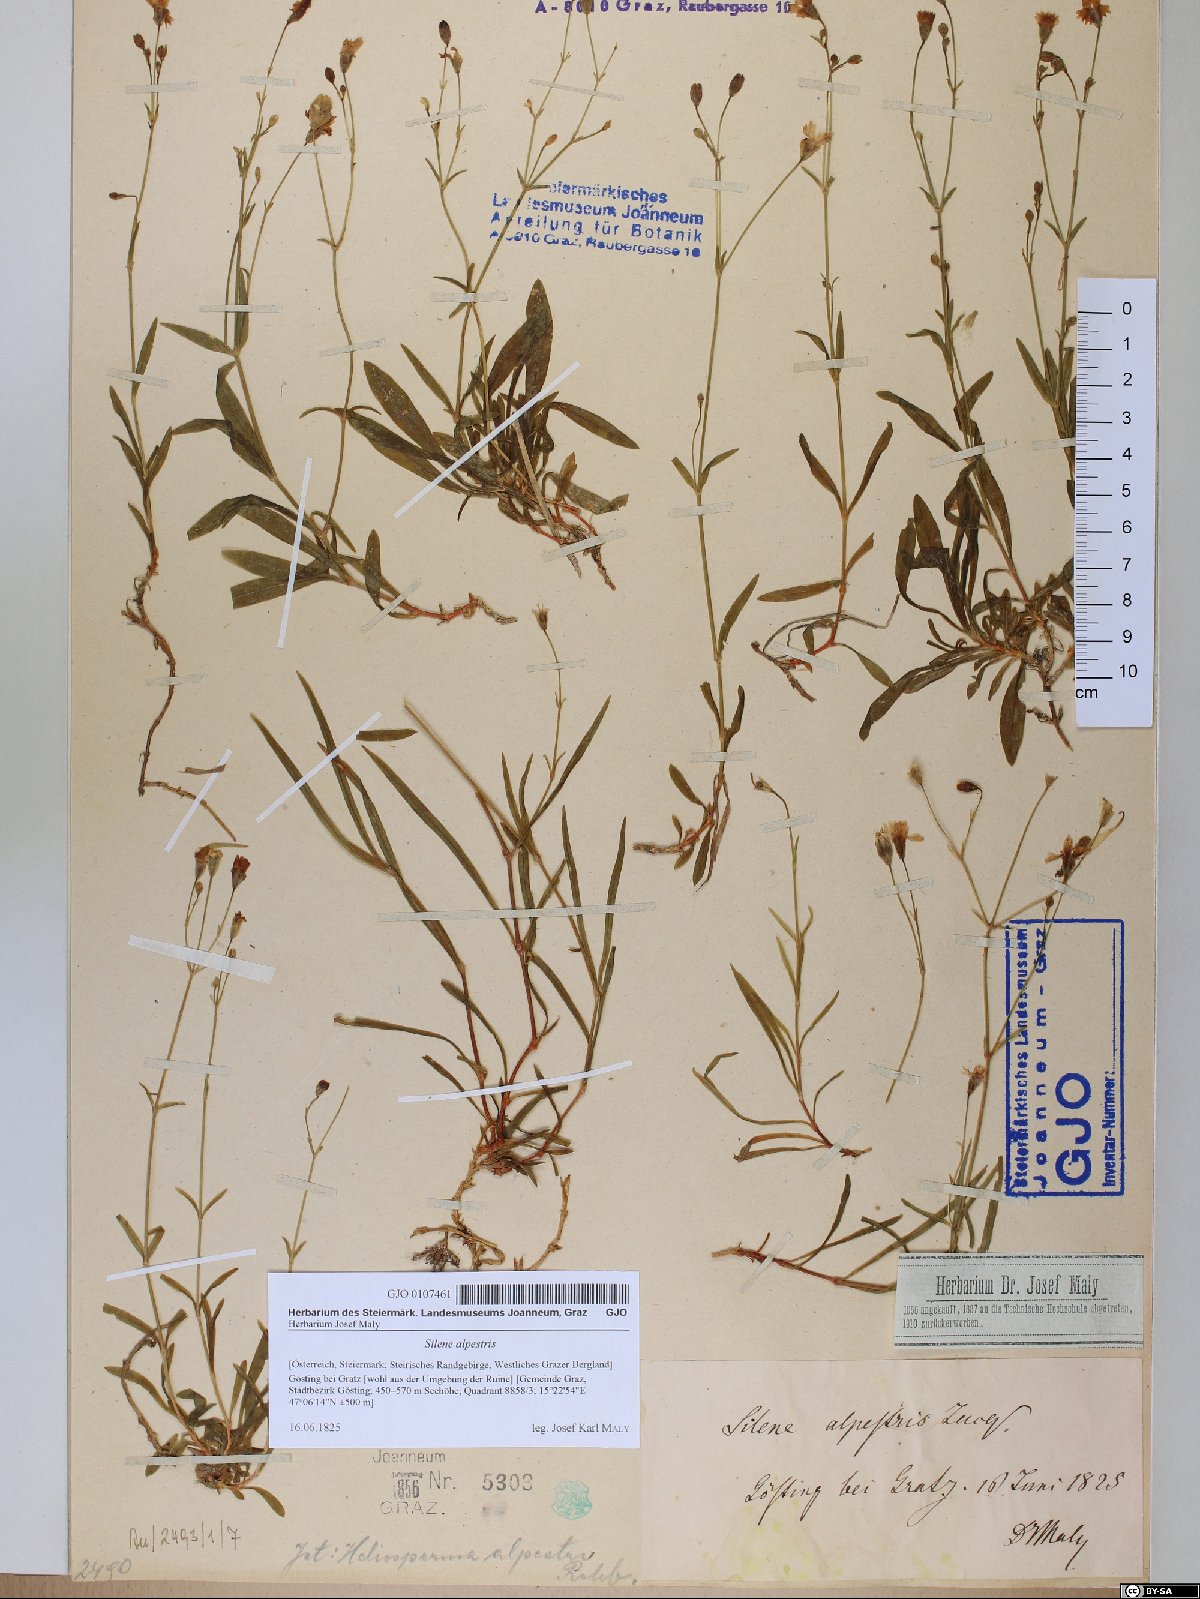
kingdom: Plantae
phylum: Tracheophyta
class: Magnoliopsida
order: Caryophyllales
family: Caryophyllaceae
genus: Heliosperma
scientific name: Heliosperma alpestre
